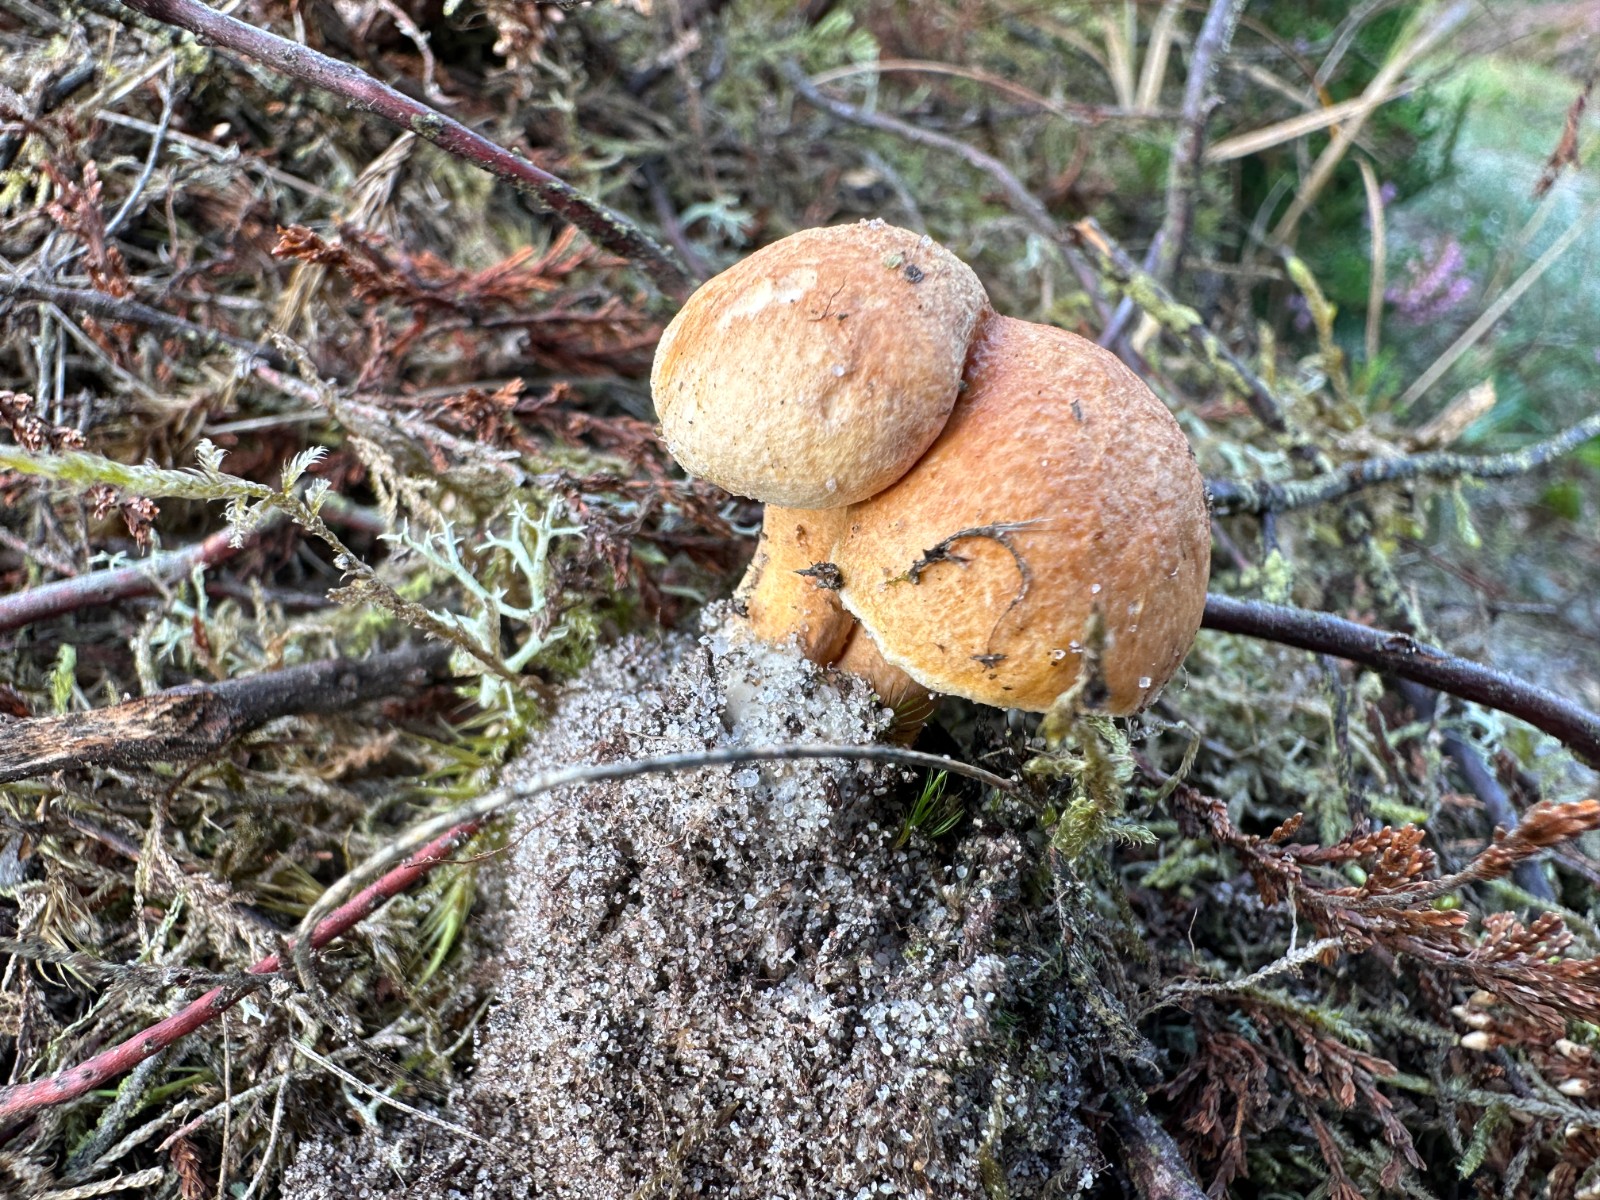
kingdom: Fungi
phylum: Basidiomycota
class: Agaricomycetes
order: Boletales
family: Suillaceae
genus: Suillus
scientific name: Suillus variegatus
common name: broget slimrørhat
